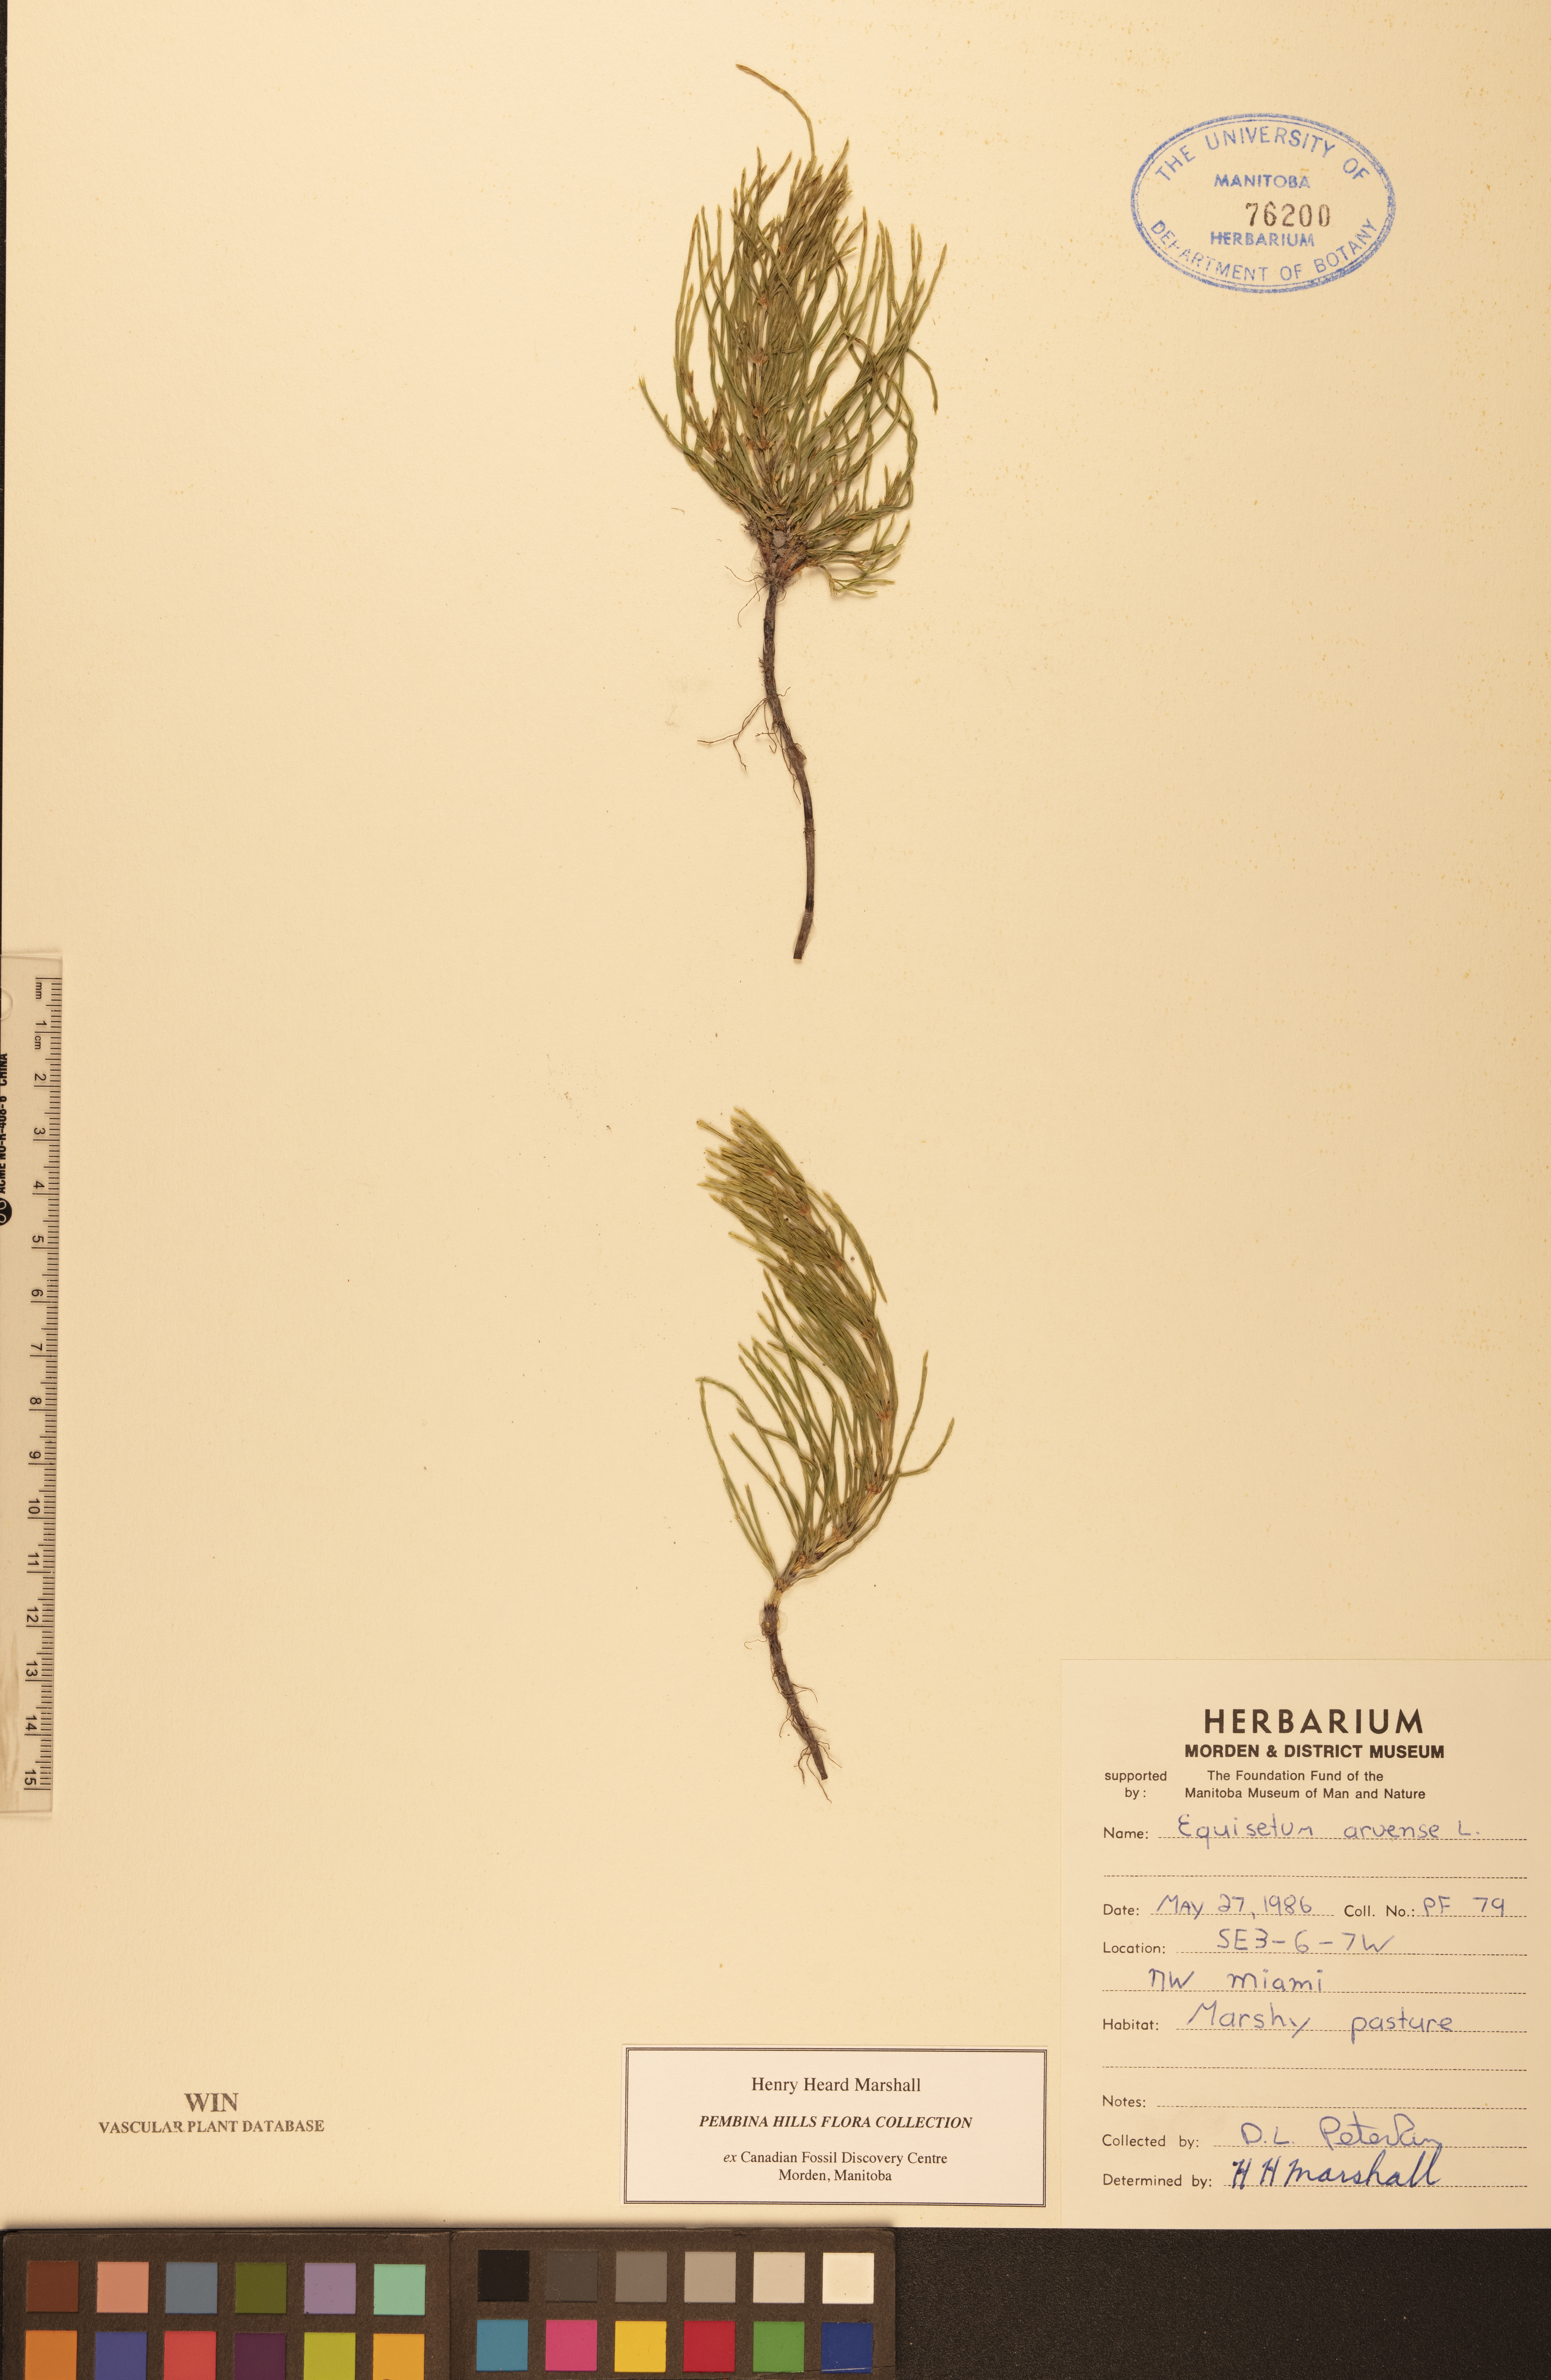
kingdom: Plantae
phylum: Tracheophyta
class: Polypodiopsida
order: Equisetales
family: Equisetaceae
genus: Equisetum
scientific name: Equisetum arvense
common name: Field horsetail
